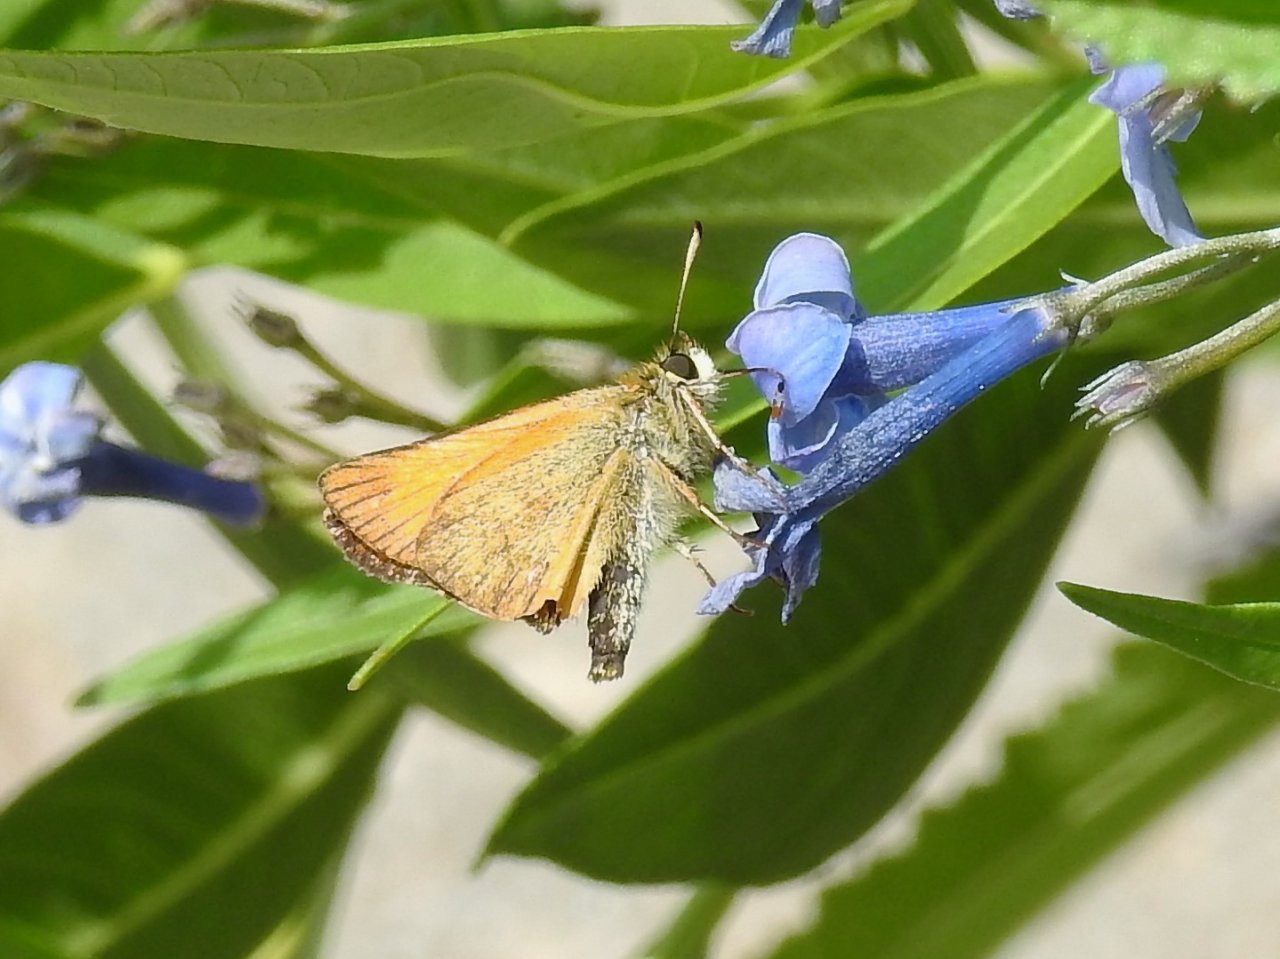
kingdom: Animalia
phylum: Arthropoda
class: Insecta
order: Lepidoptera
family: Hesperiidae
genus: Thymelicus
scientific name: Thymelicus lineola
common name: European Skipper
